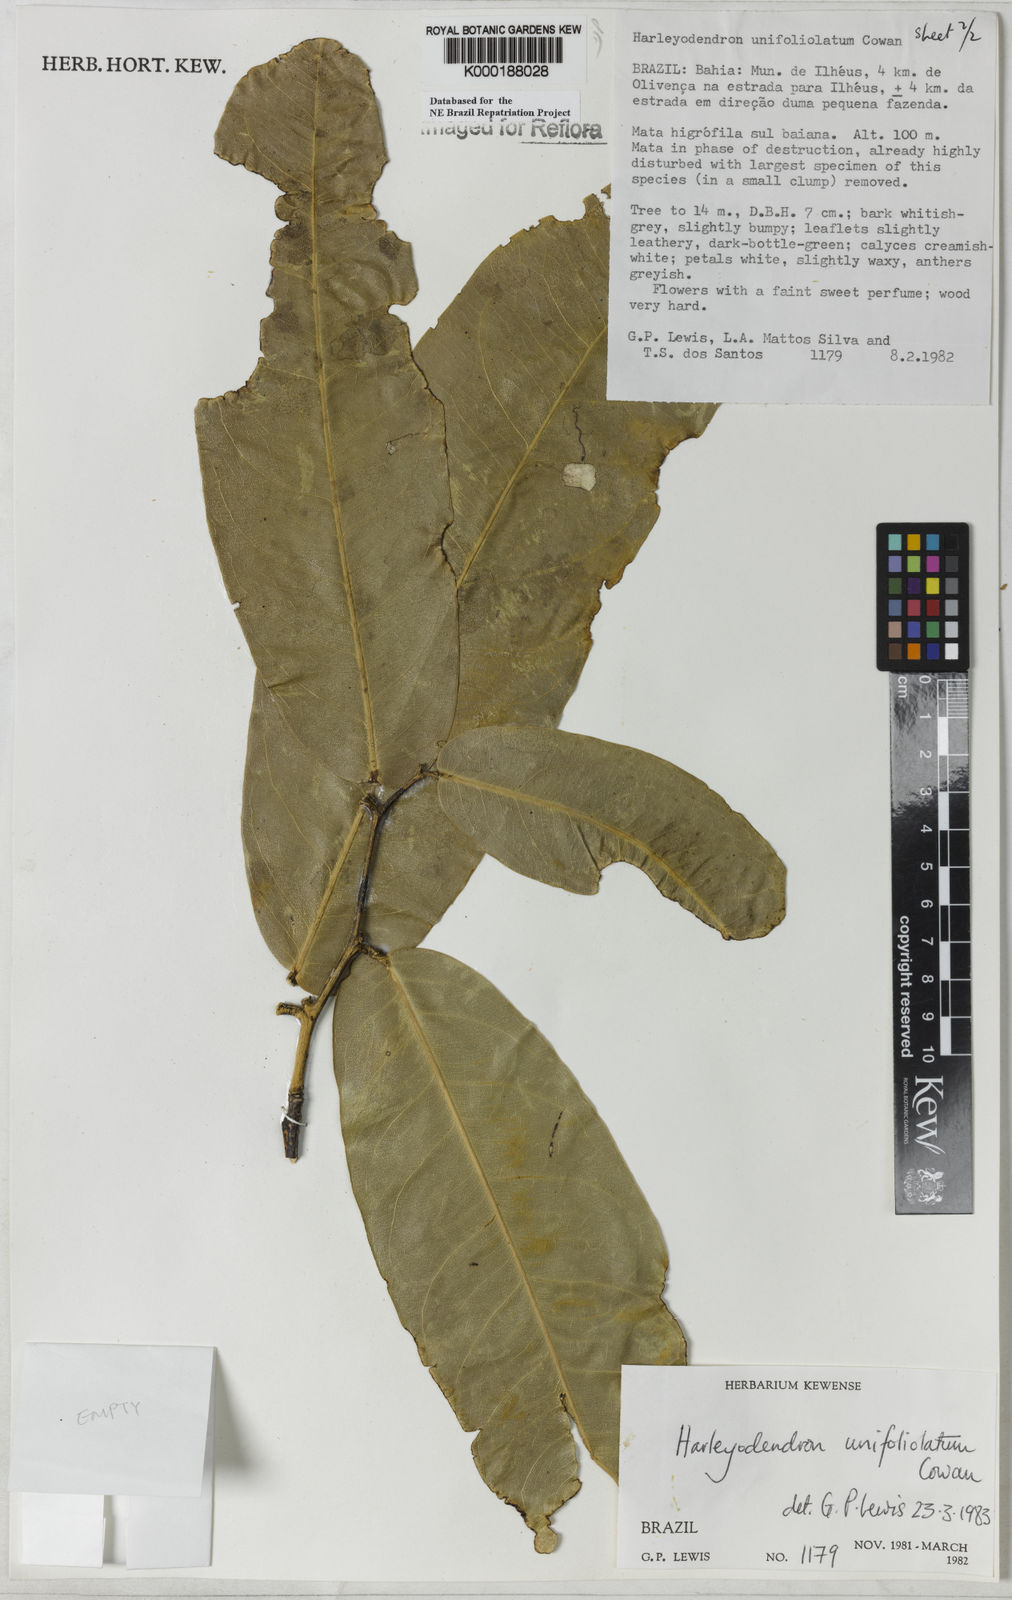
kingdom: Plantae
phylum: Tracheophyta
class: Magnoliopsida
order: Fabales
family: Fabaceae
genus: Harleyodendron
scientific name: Harleyodendron unifoliolatum
